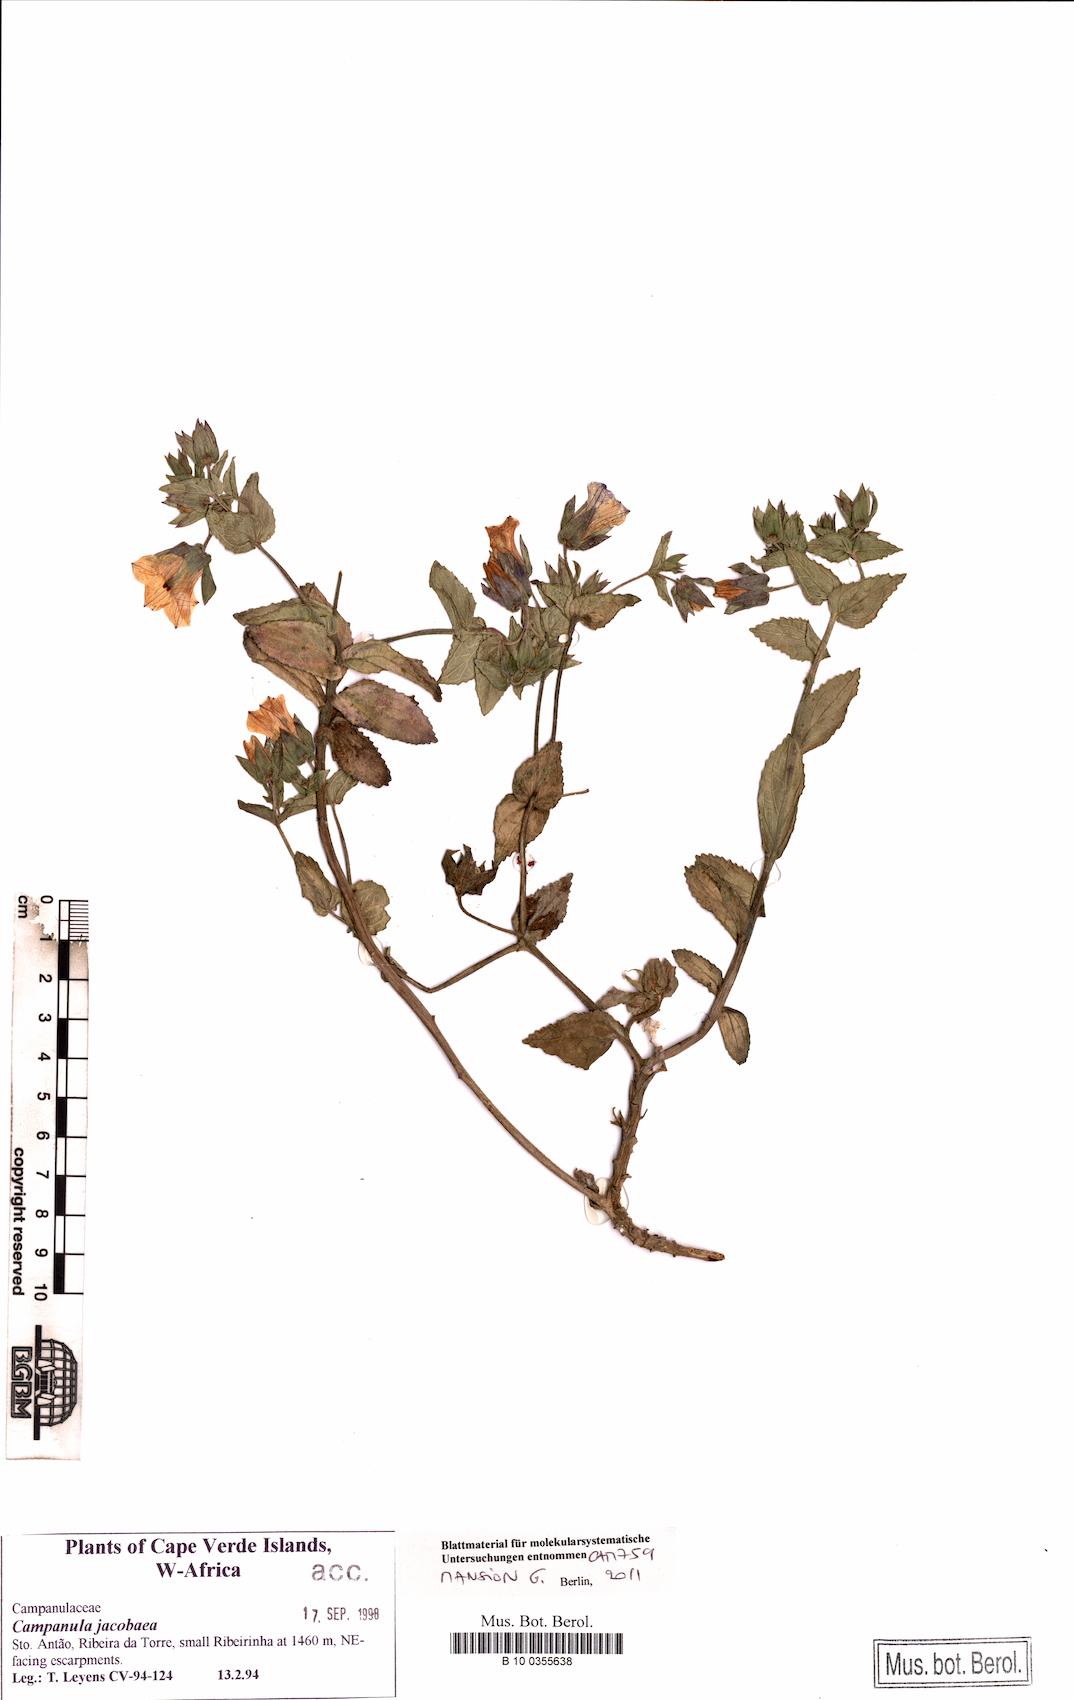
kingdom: Plantae
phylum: Tracheophyta
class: Magnoliopsida
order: Asterales
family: Campanulaceae
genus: Campanula
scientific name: Campanula jacobaea
